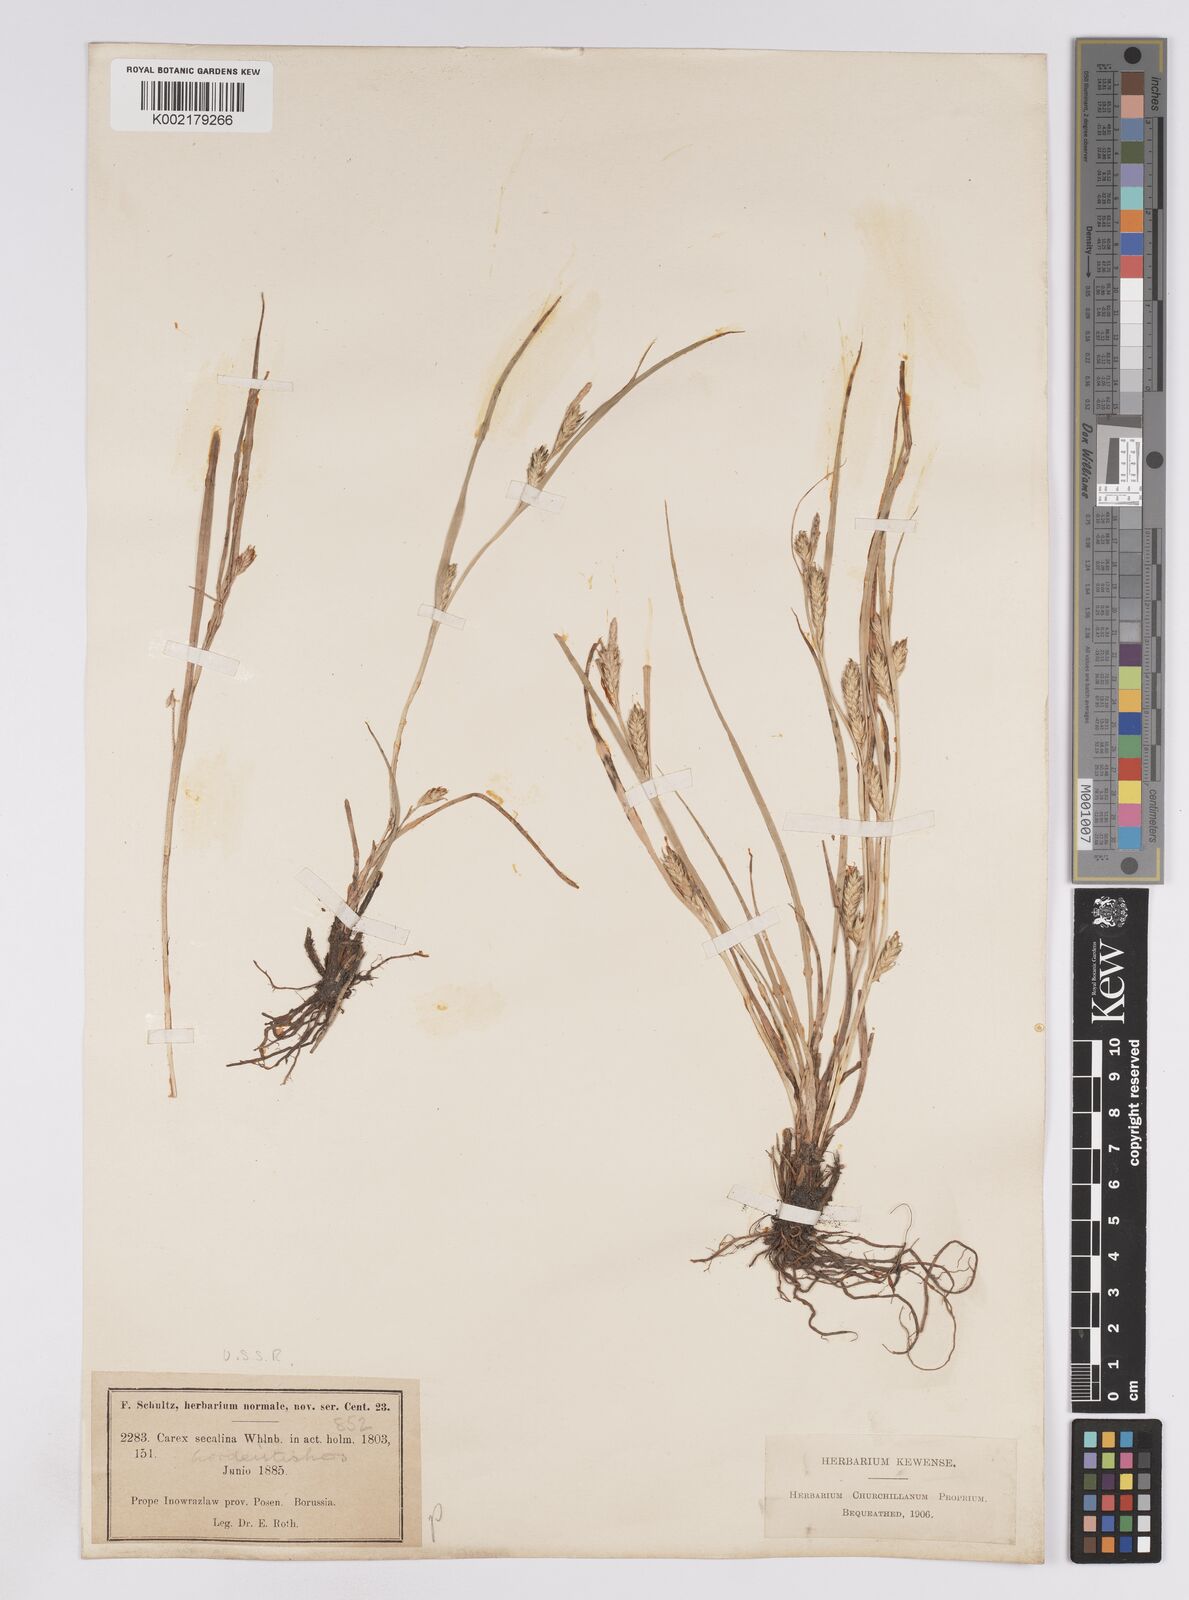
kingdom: Plantae
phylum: Tracheophyta
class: Liliopsida
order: Poales
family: Cyperaceae
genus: Carex
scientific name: Carex hordeistichos
